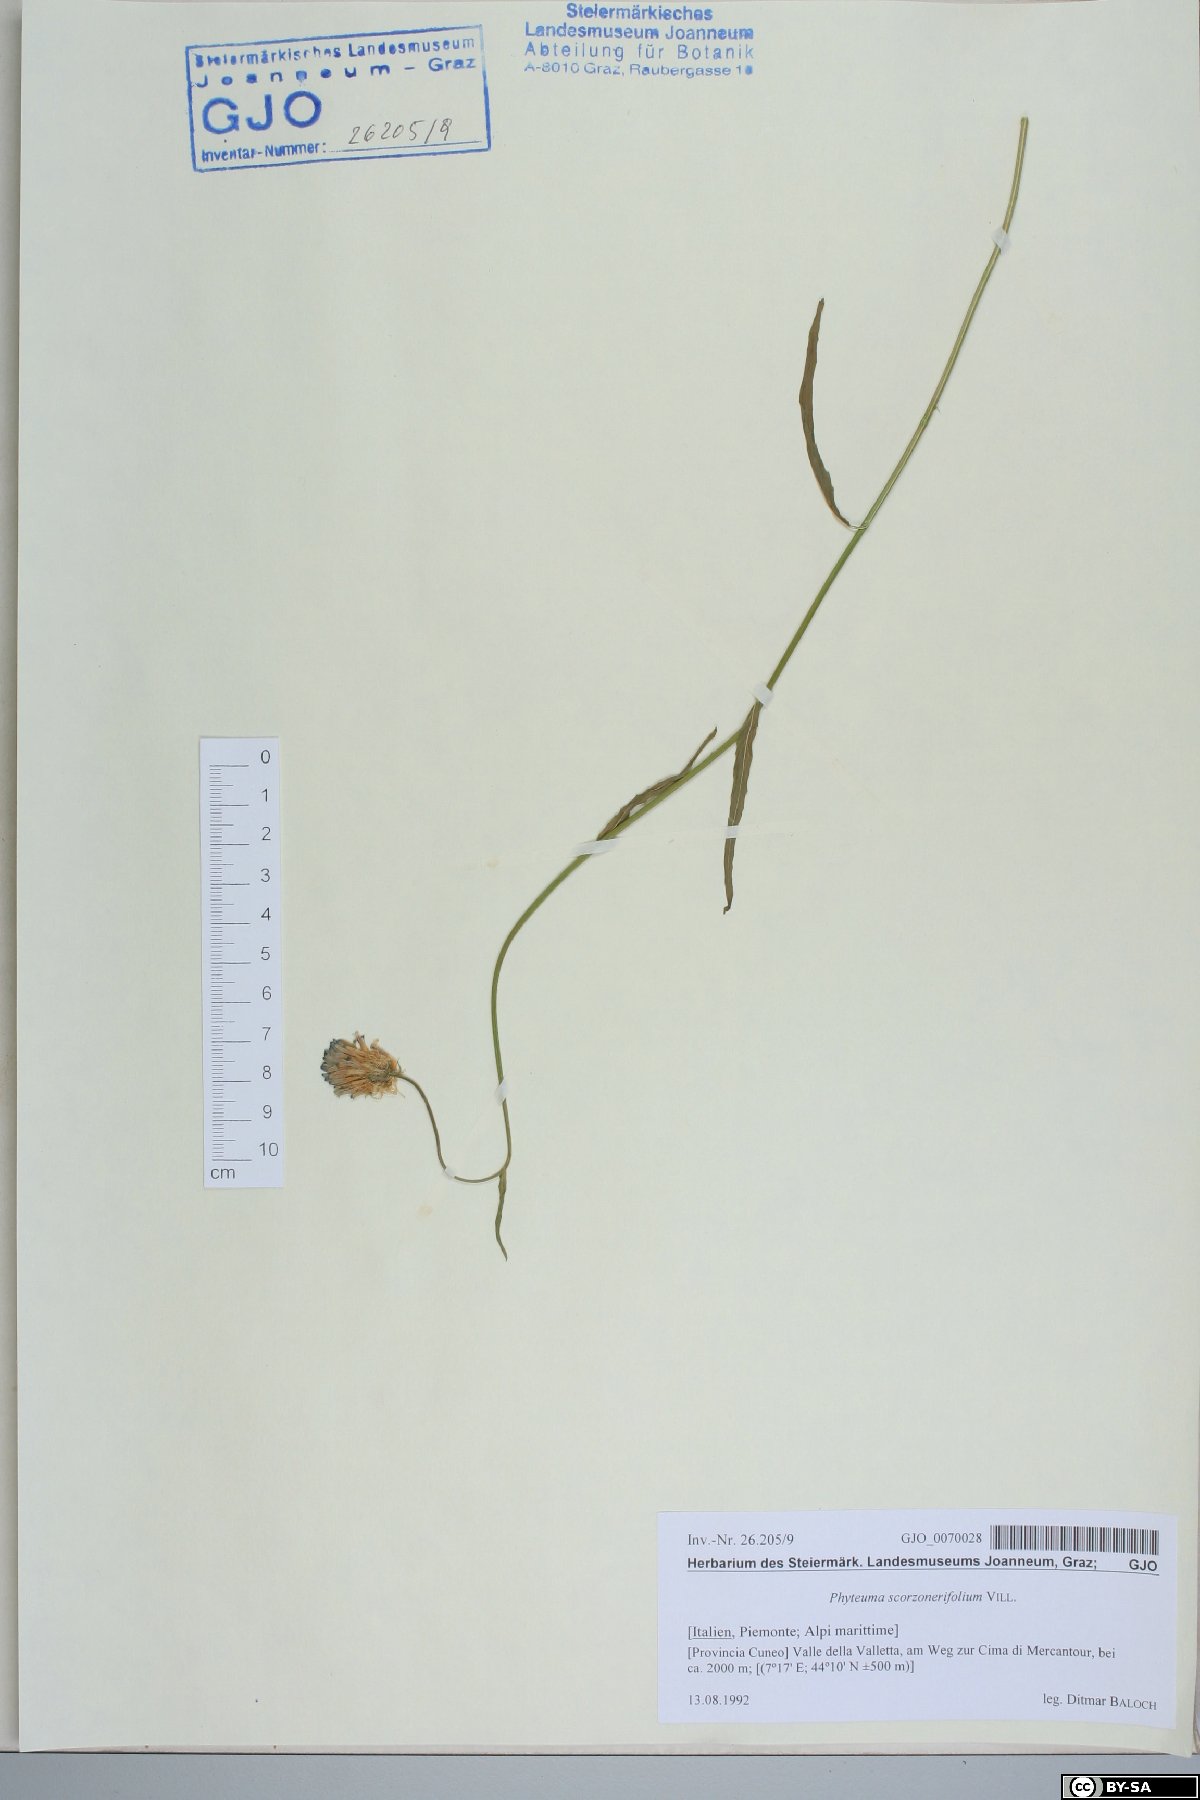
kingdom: Plantae
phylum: Tracheophyta
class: Magnoliopsida
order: Asterales
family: Campanulaceae
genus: Phyteuma
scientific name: Phyteuma scorzonerifolium
